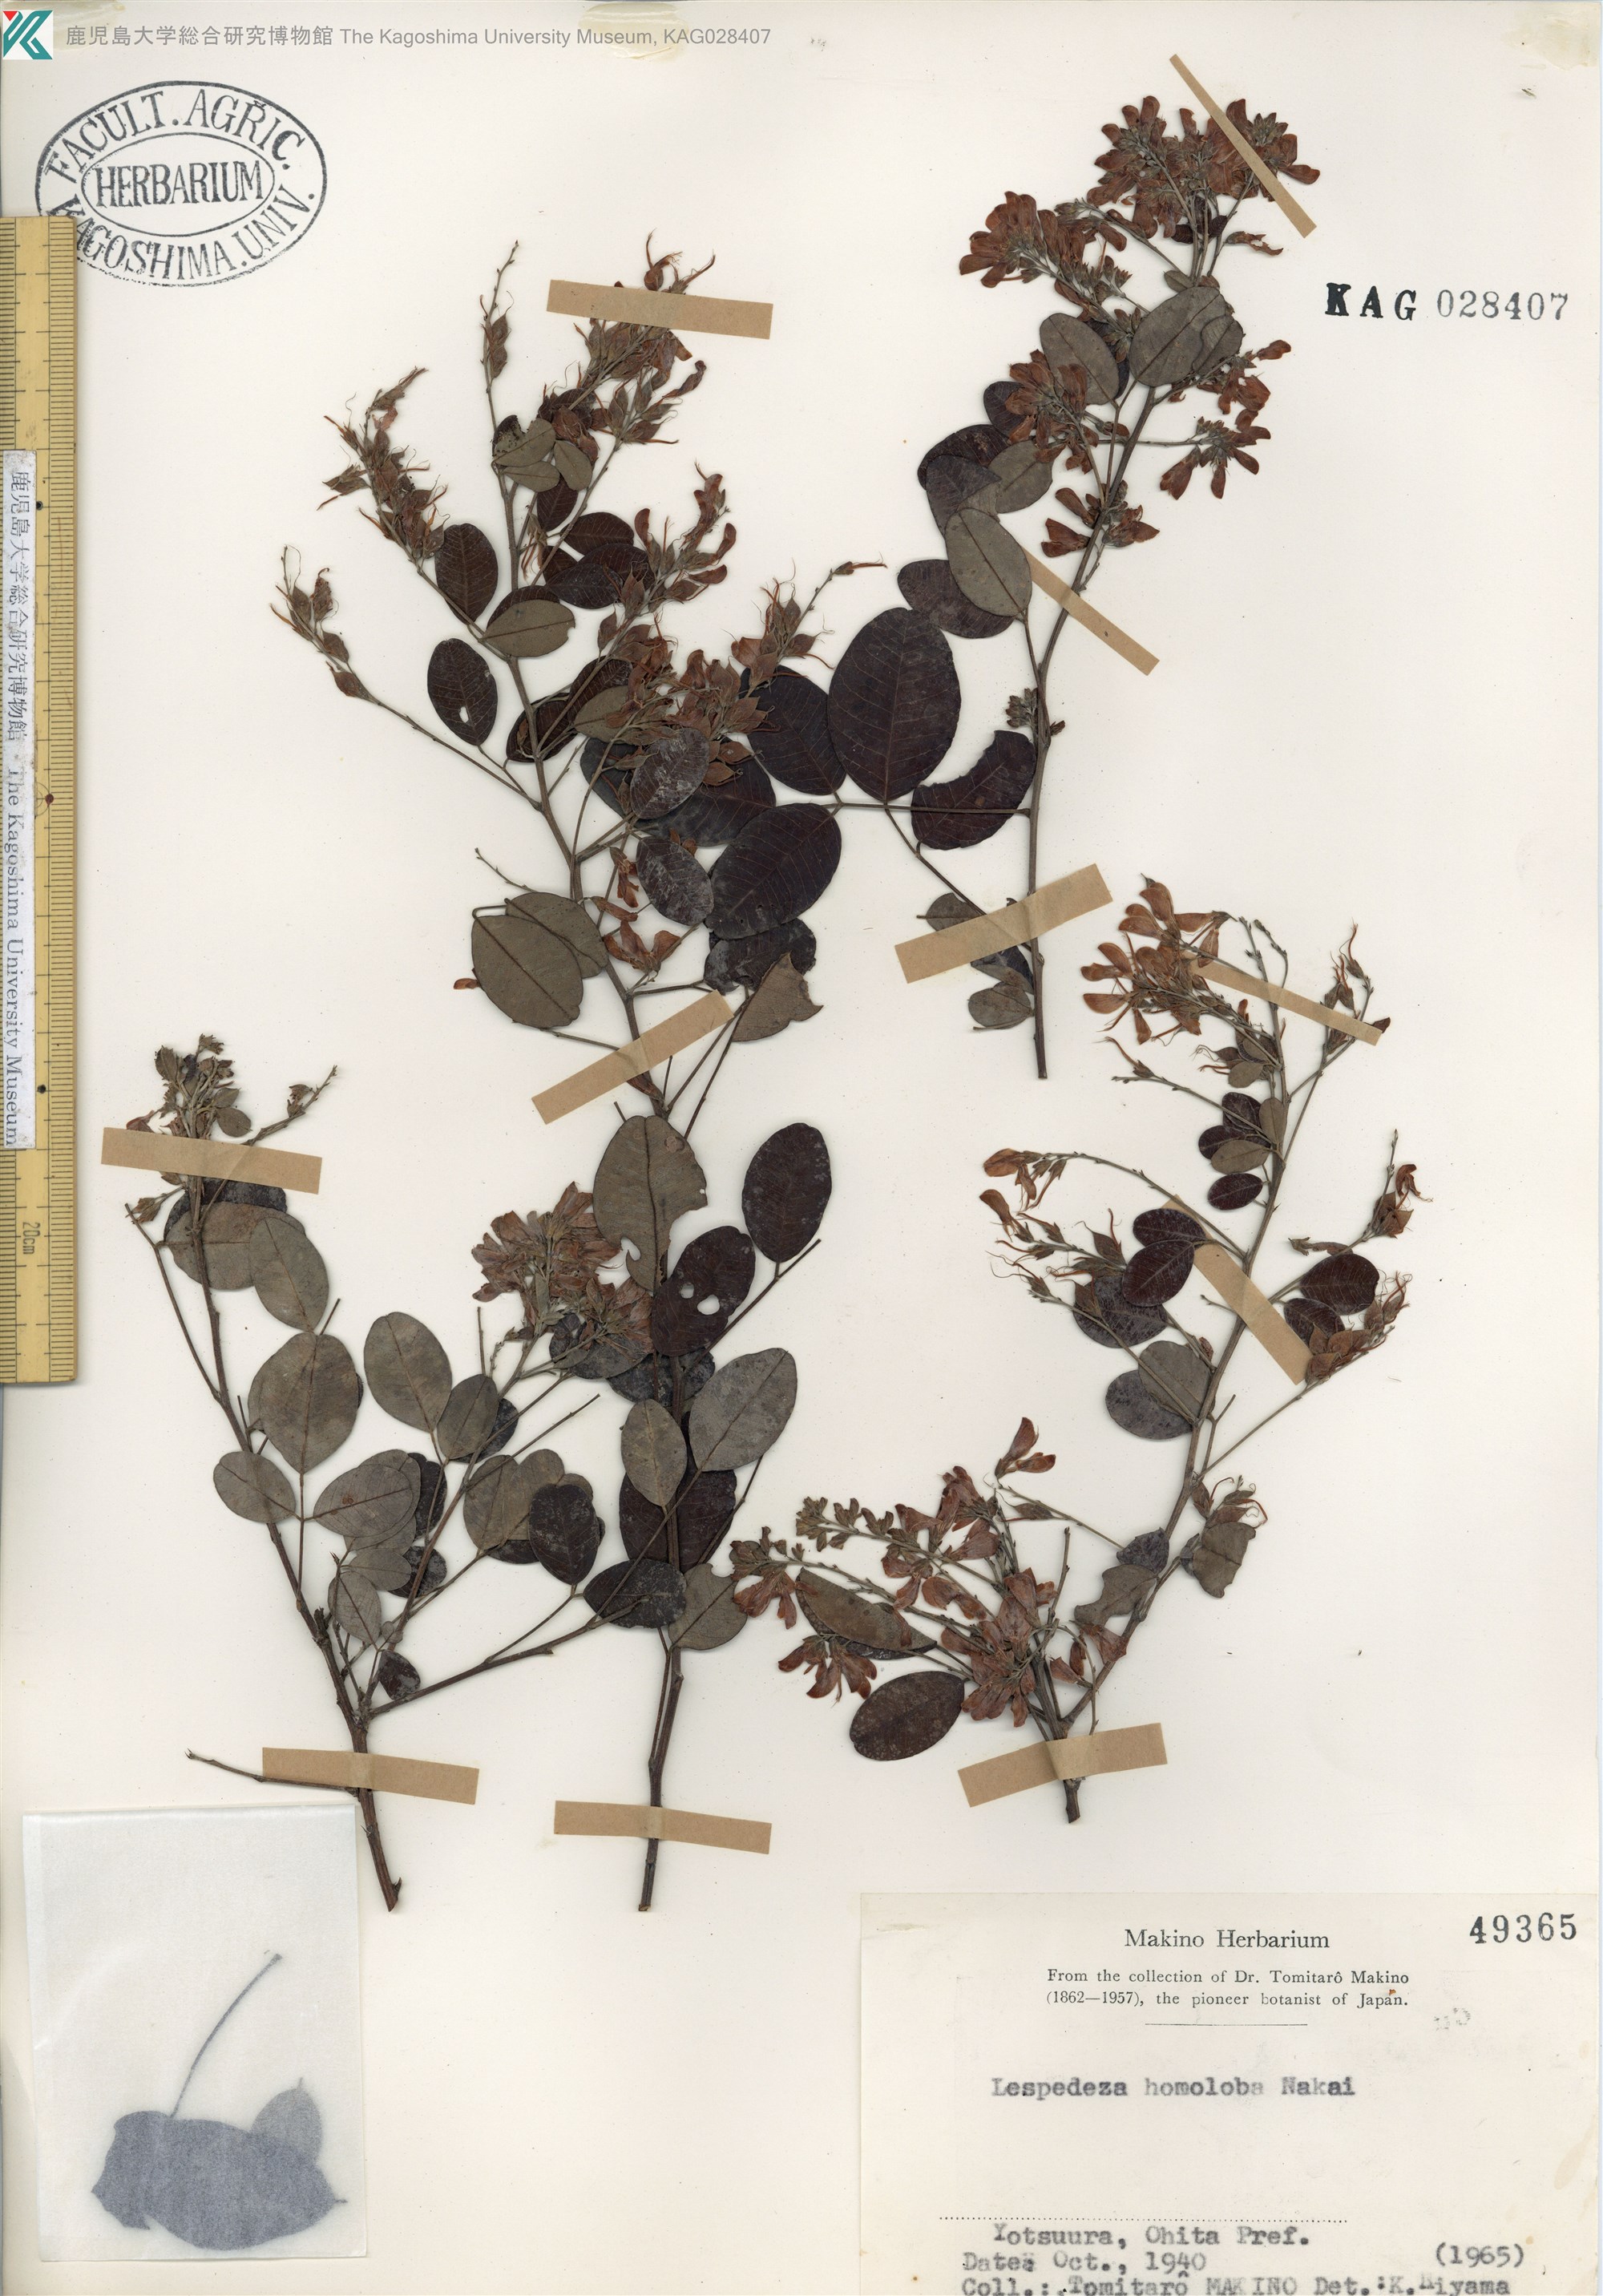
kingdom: Plantae
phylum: Tracheophyta
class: Magnoliopsida
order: Fabales
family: Fabaceae
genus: Lespedeza
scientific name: Lespedeza homoloba
